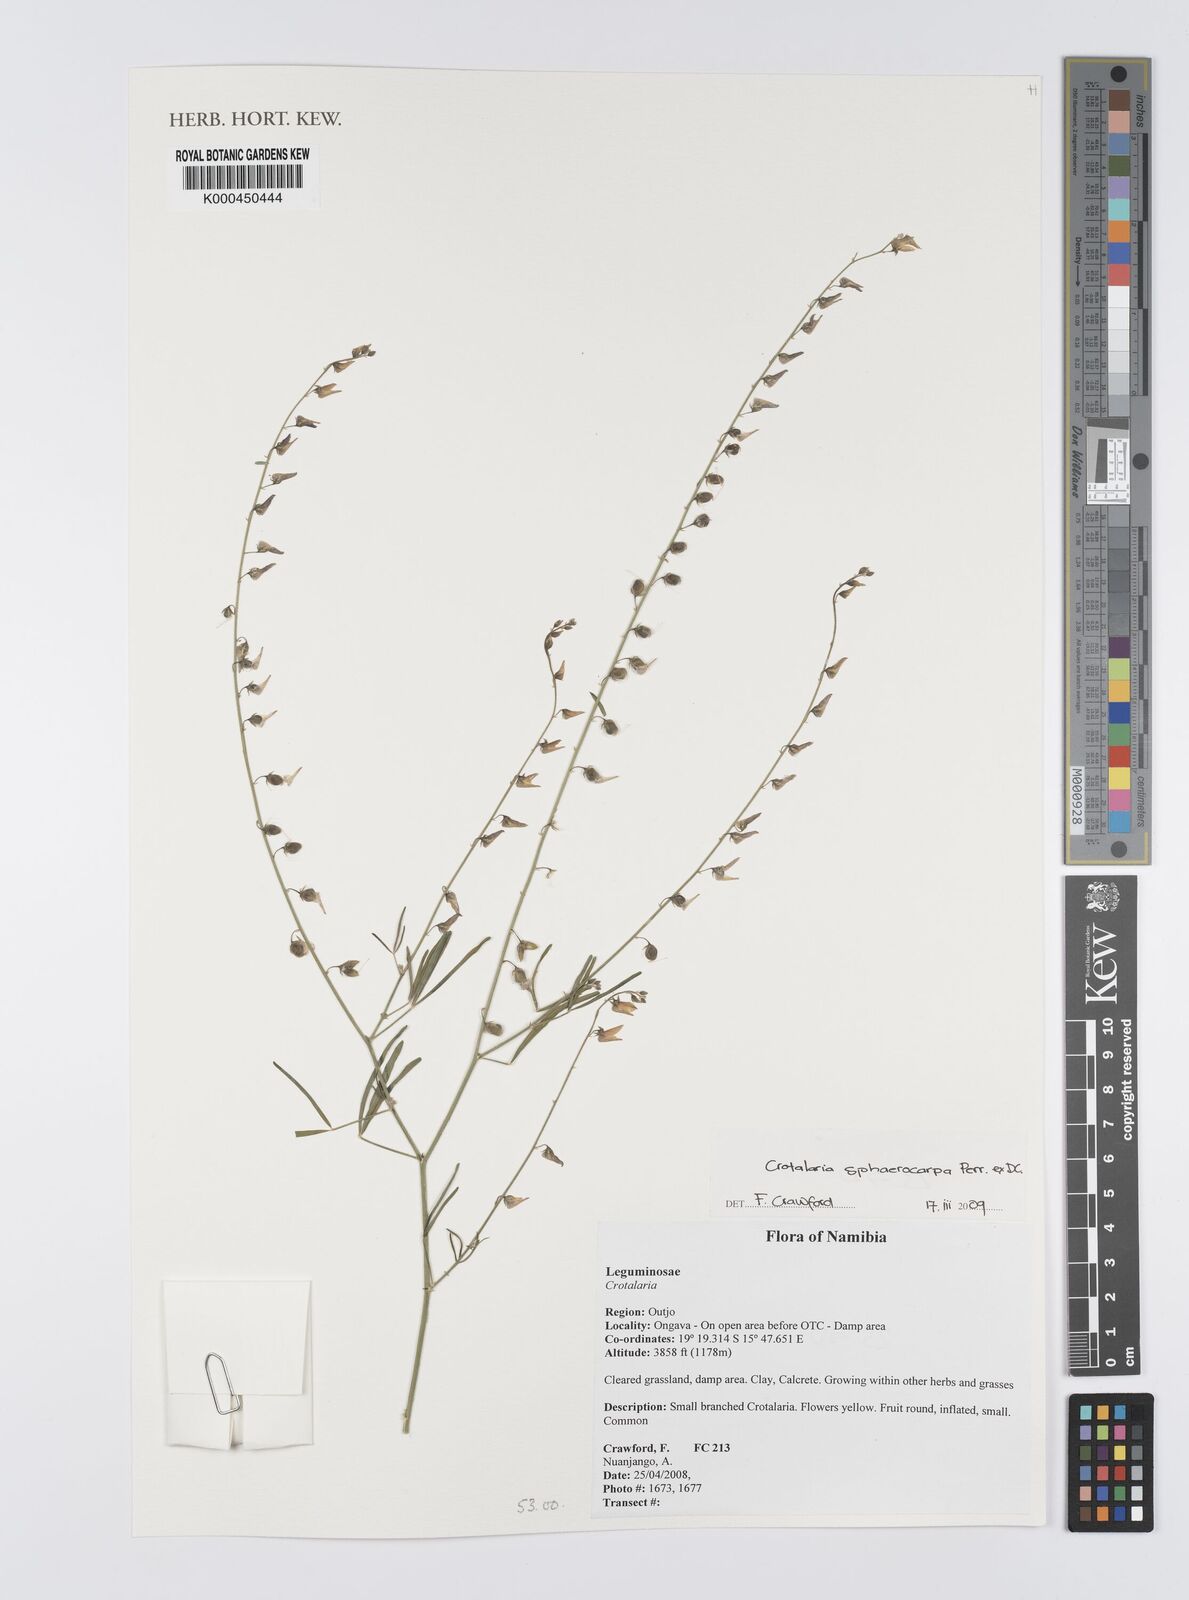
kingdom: Plantae
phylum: Tracheophyta
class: Magnoliopsida
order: Fabales
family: Fabaceae
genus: Crotalaria
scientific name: Crotalaria sphaerocarpa
